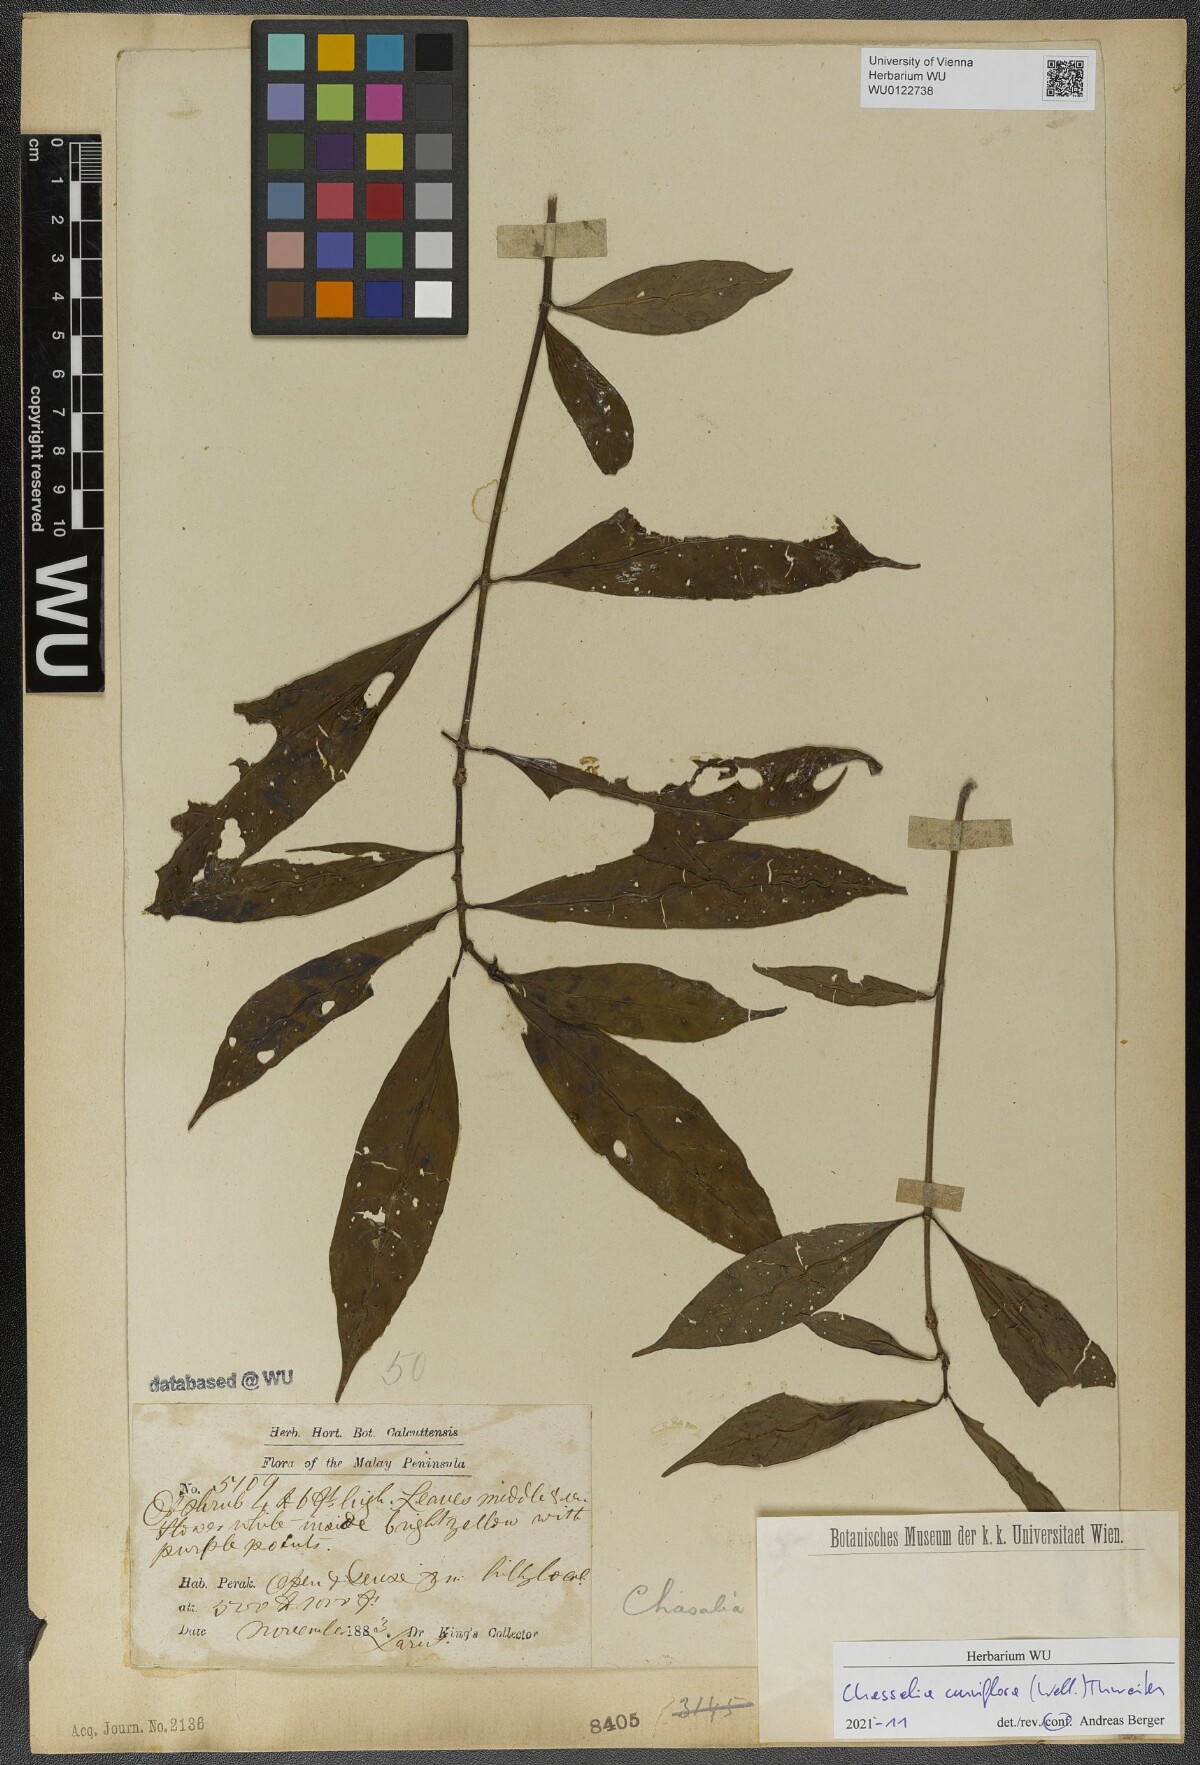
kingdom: Plantae
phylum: Tracheophyta
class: Magnoliopsida
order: Gentianales
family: Rubiaceae
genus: Chassalia
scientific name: Chassalia curviflora
